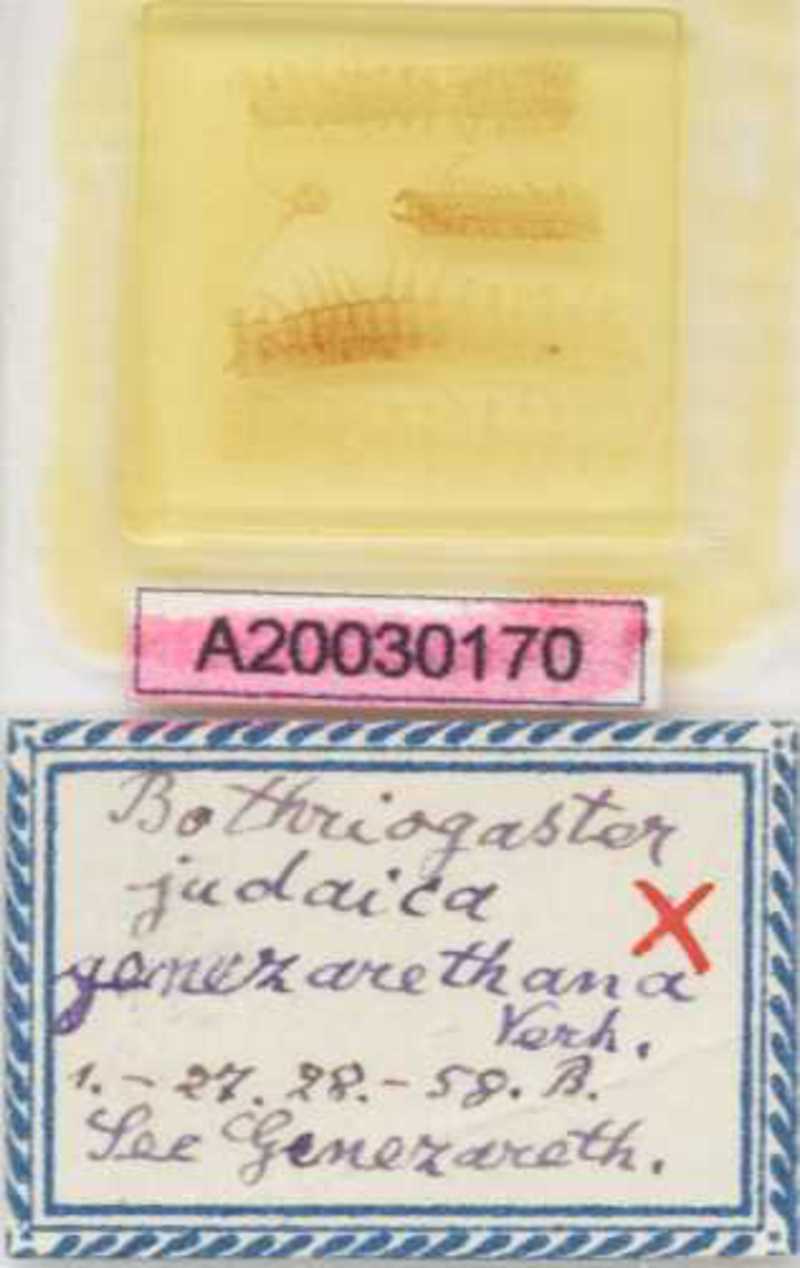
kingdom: Animalia
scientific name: Animalia
